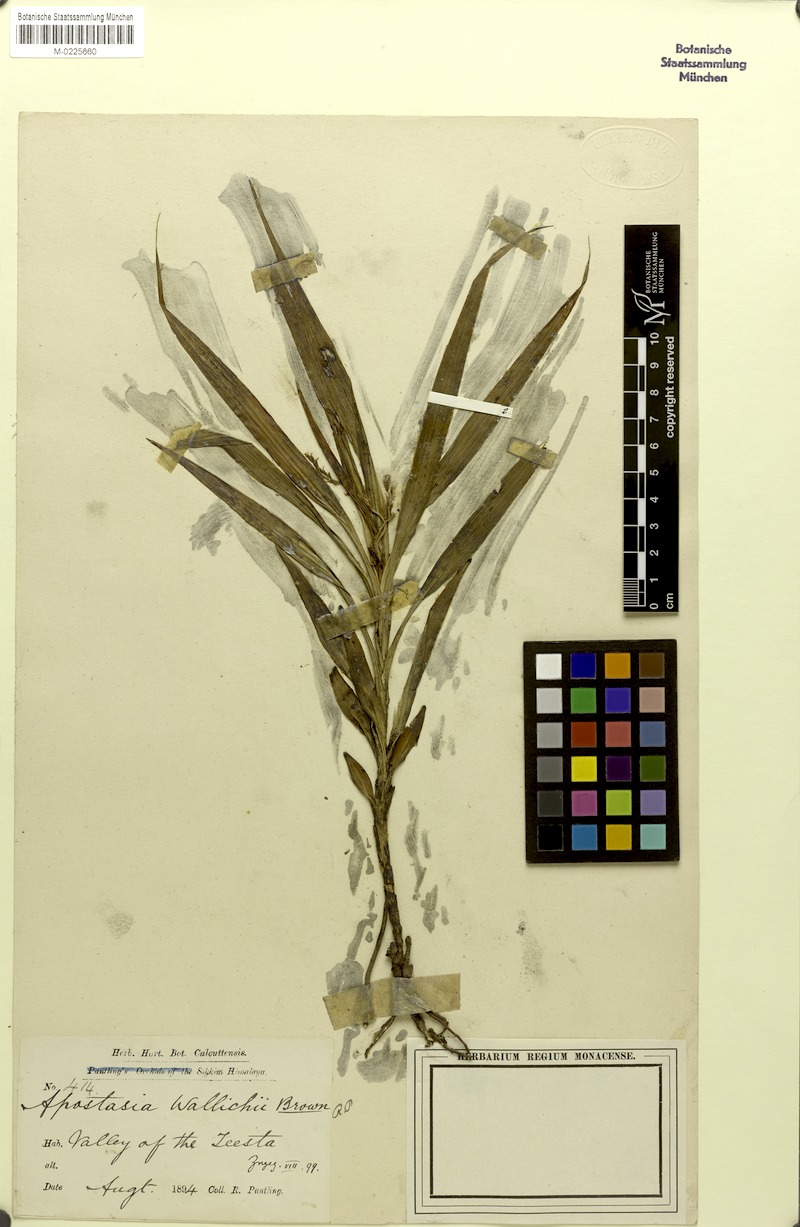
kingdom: Plantae
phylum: Tracheophyta
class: Liliopsida
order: Asparagales
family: Orchidaceae
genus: Apostasia
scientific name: Apostasia wallichii
